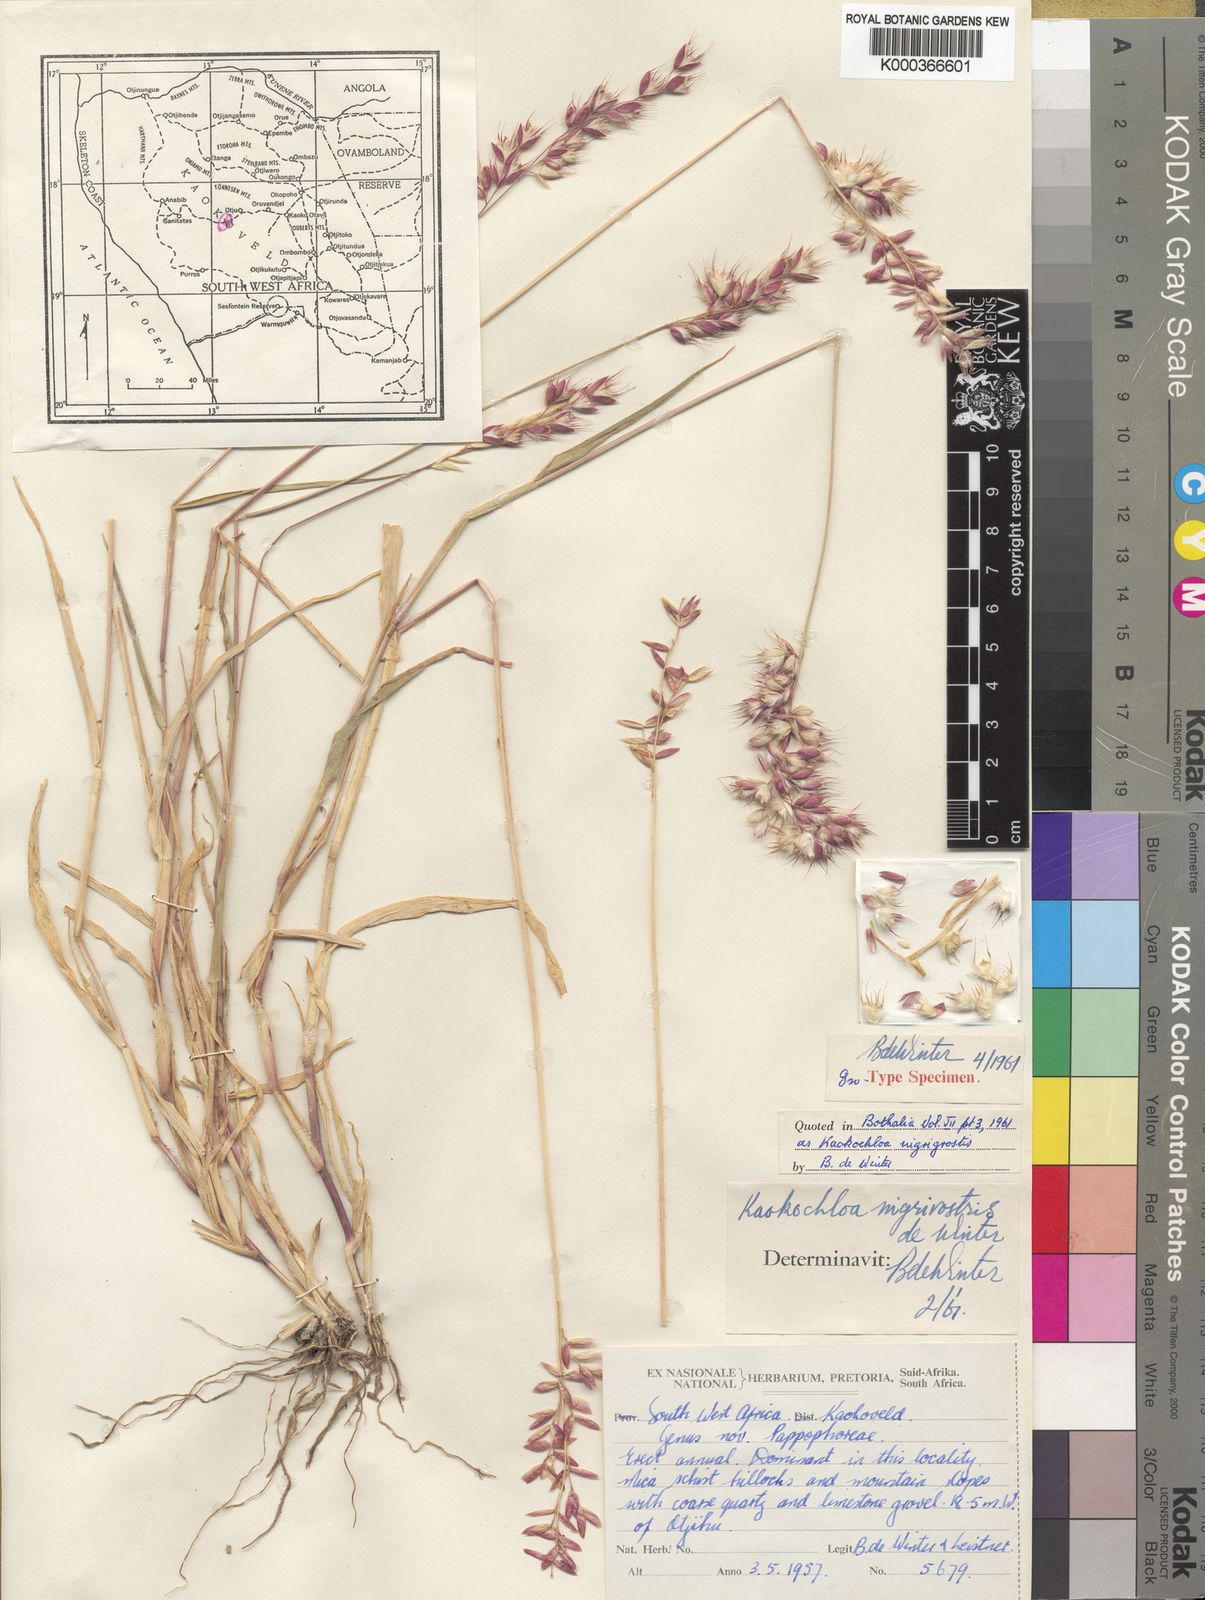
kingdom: Plantae
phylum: Tracheophyta
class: Liliopsida
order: Poales
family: Poaceae
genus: Kaokochloa
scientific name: Kaokochloa nigrirostris
